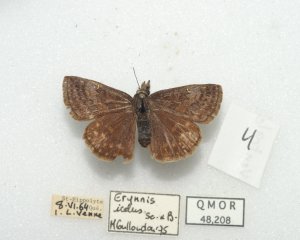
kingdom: Animalia
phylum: Arthropoda
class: Insecta
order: Lepidoptera
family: Hesperiidae
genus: Erynnis
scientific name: Erynnis icelus
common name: Dreamy Duskywing
